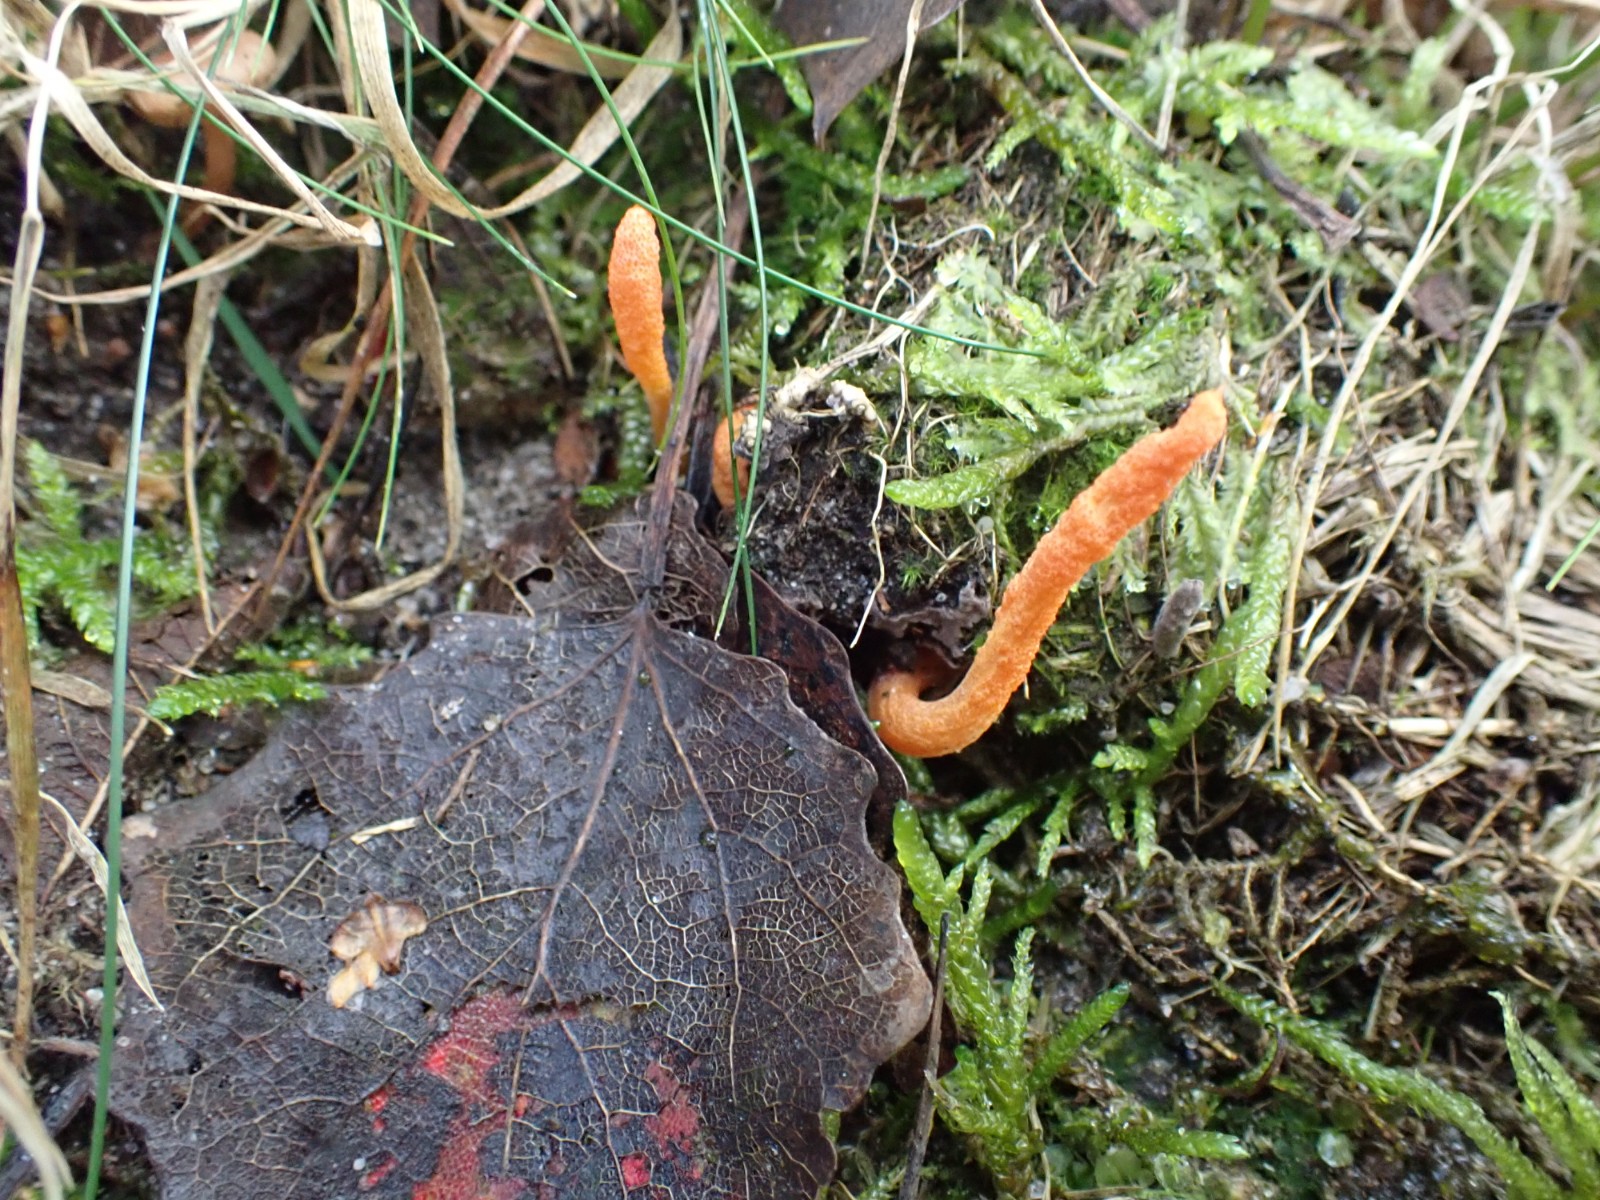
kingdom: Fungi
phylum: Ascomycota
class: Sordariomycetes
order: Hypocreales
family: Cordycipitaceae
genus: Cordyceps
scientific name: Cordyceps militaris
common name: puppe-snyltekølle
